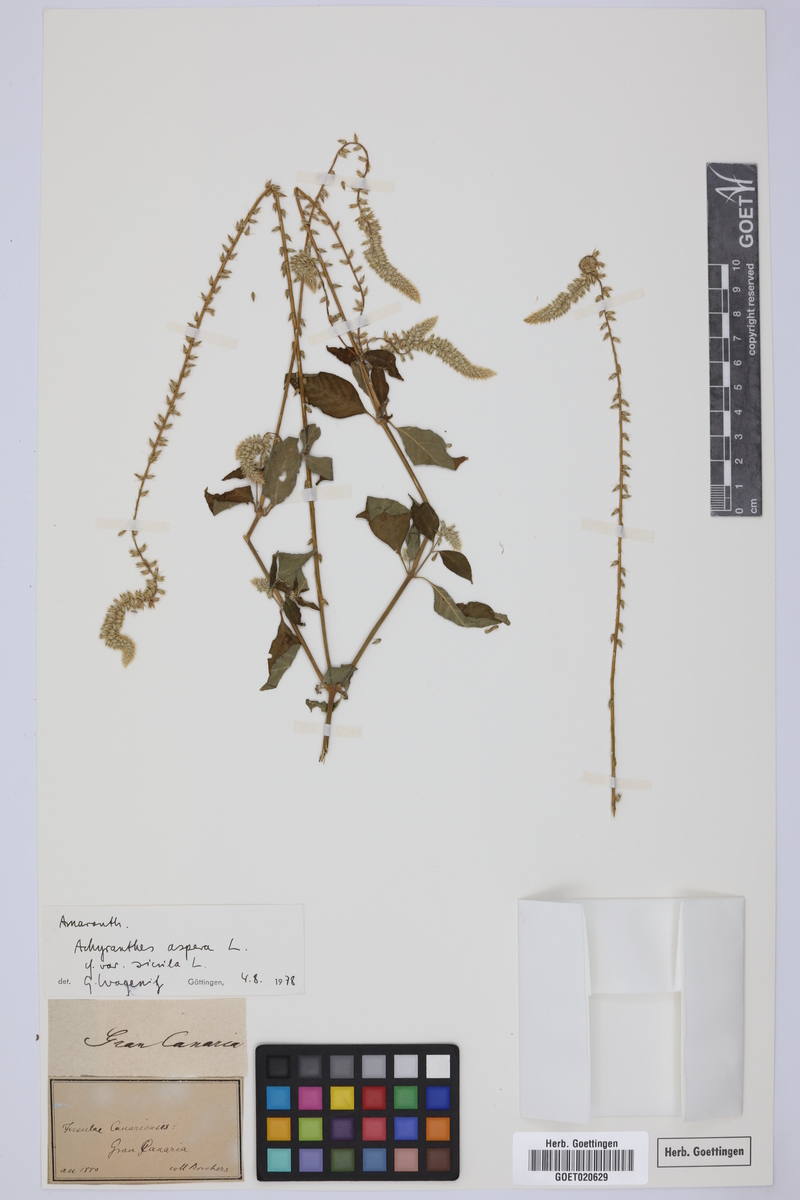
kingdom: Plantae
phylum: Tracheophyta
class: Magnoliopsida
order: Caryophyllales
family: Amaranthaceae
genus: Achyranthes
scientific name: Achyranthes sicula
